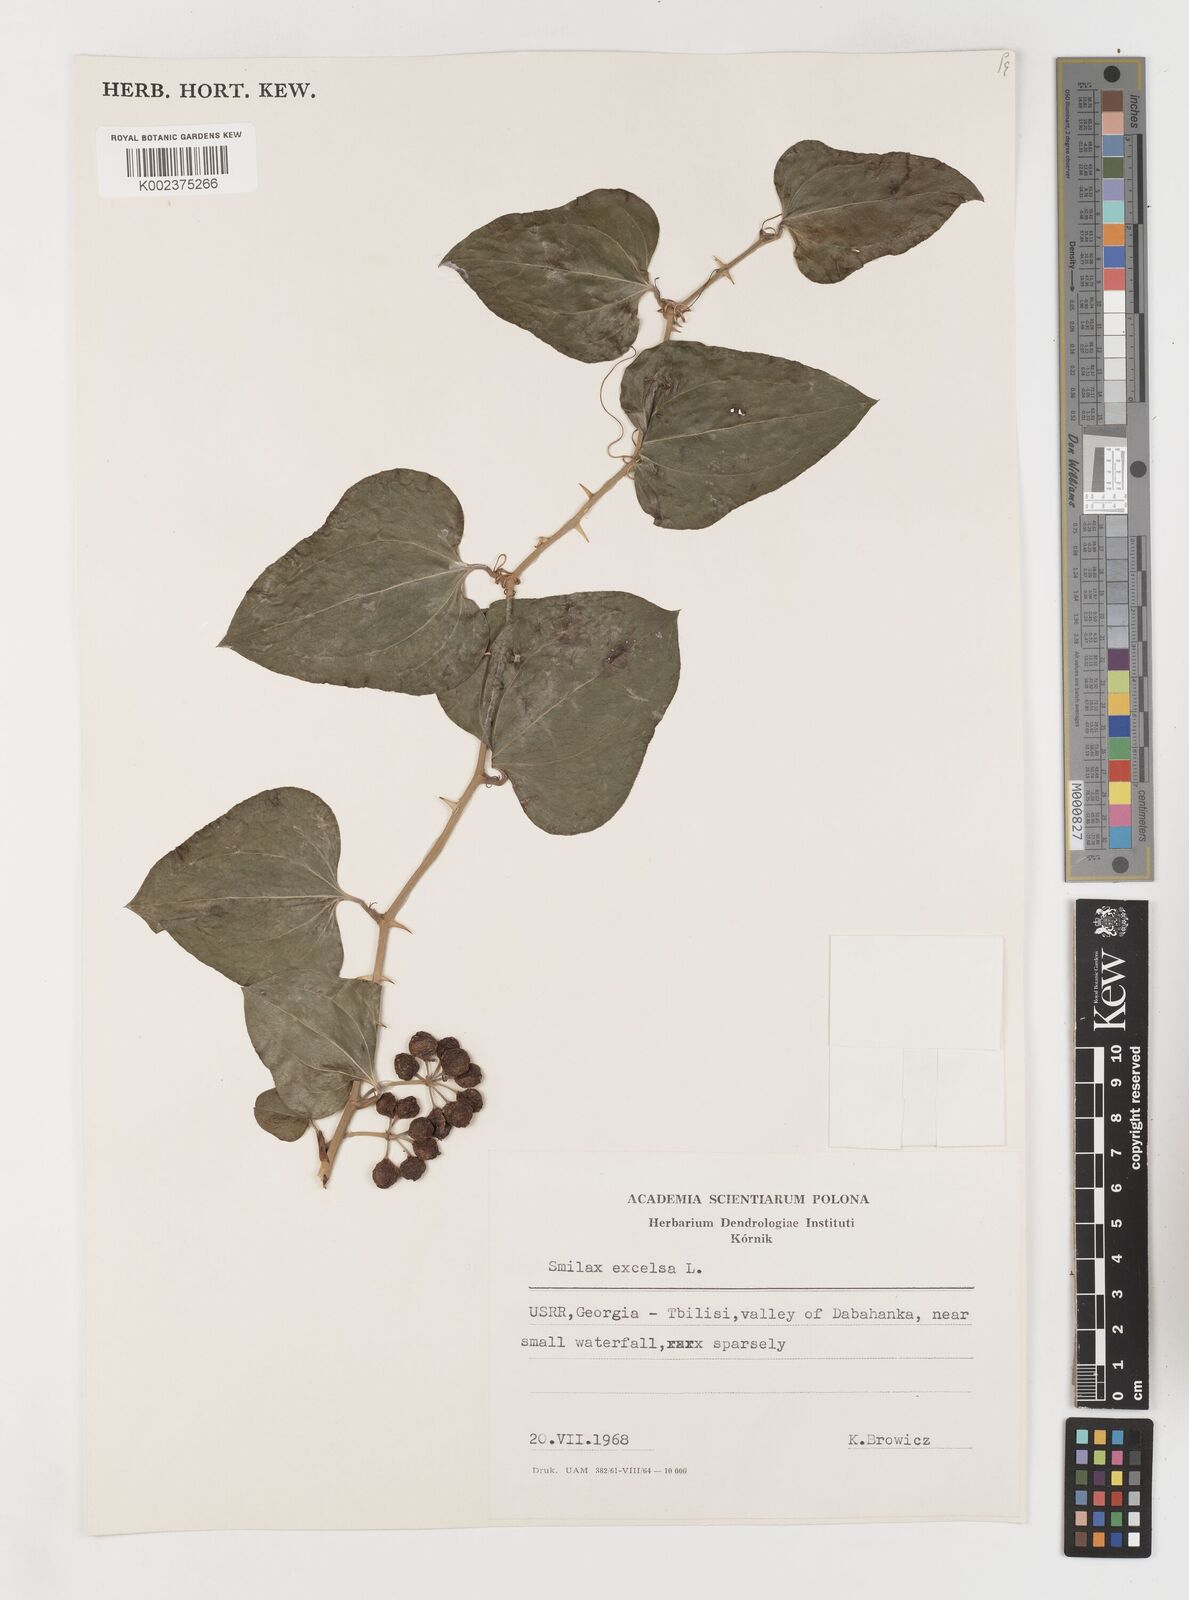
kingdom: Plantae
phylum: Tracheophyta
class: Liliopsida
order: Liliales
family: Smilacaceae
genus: Smilax
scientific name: Smilax excelsa
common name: Larger smilax
